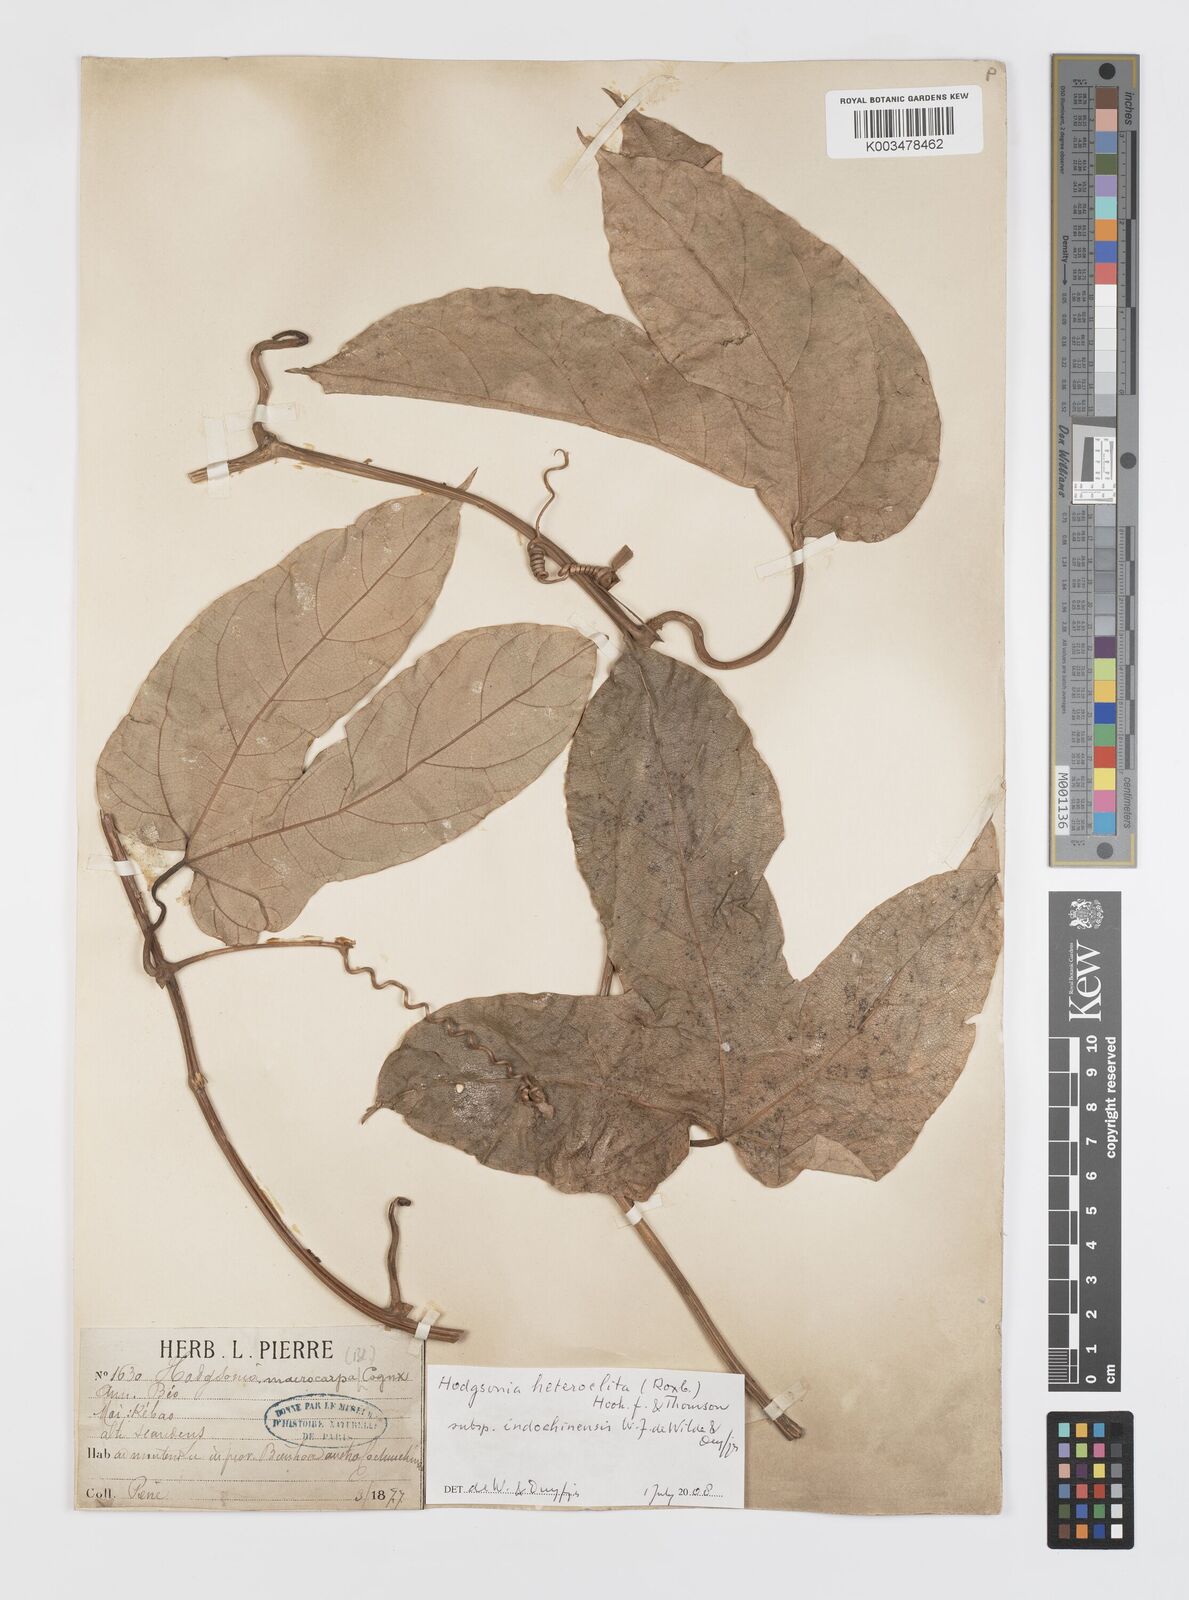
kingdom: Plantae
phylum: Tracheophyta
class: Magnoliopsida
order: Cucurbitales
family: Cucurbitaceae
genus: Hodgsonia
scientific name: Hodgsonia macrocarpa
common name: Chinese lardfruit
